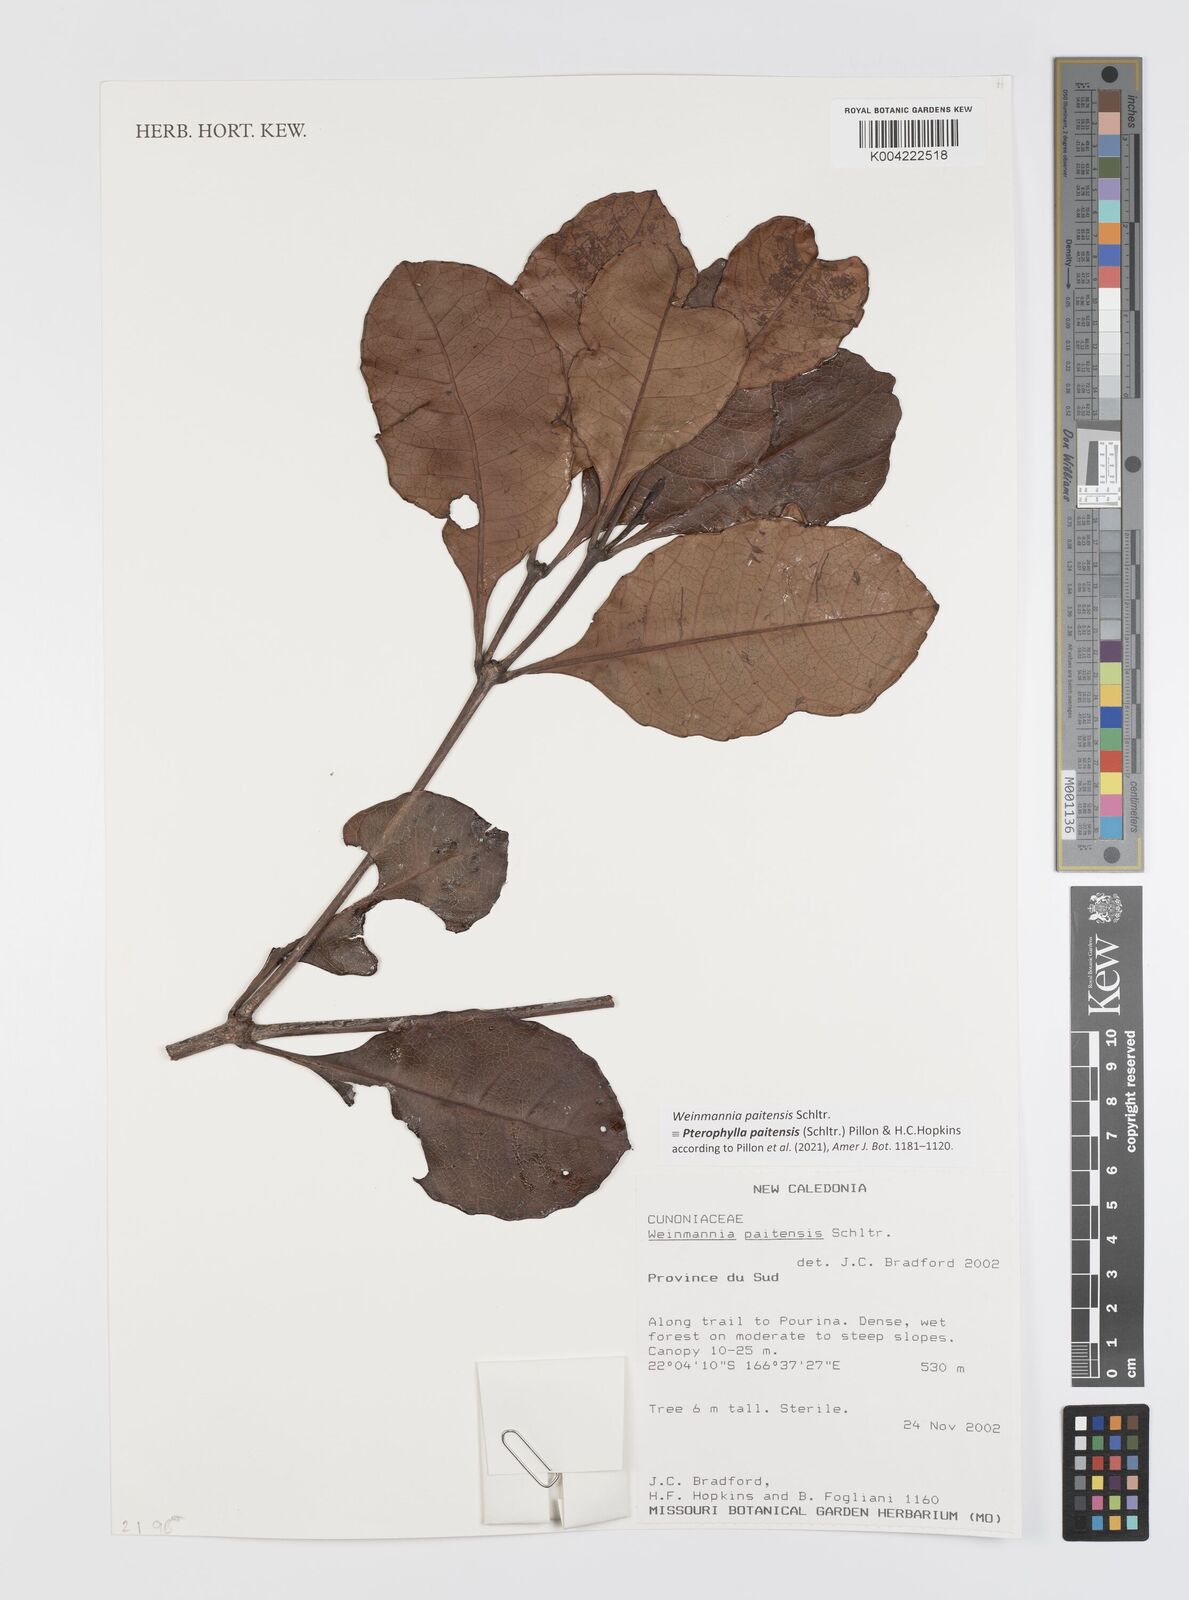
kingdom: Plantae
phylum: Tracheophyta
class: Magnoliopsida
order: Oxalidales
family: Cunoniaceae
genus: Pterophylla
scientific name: Pterophylla paitensis
